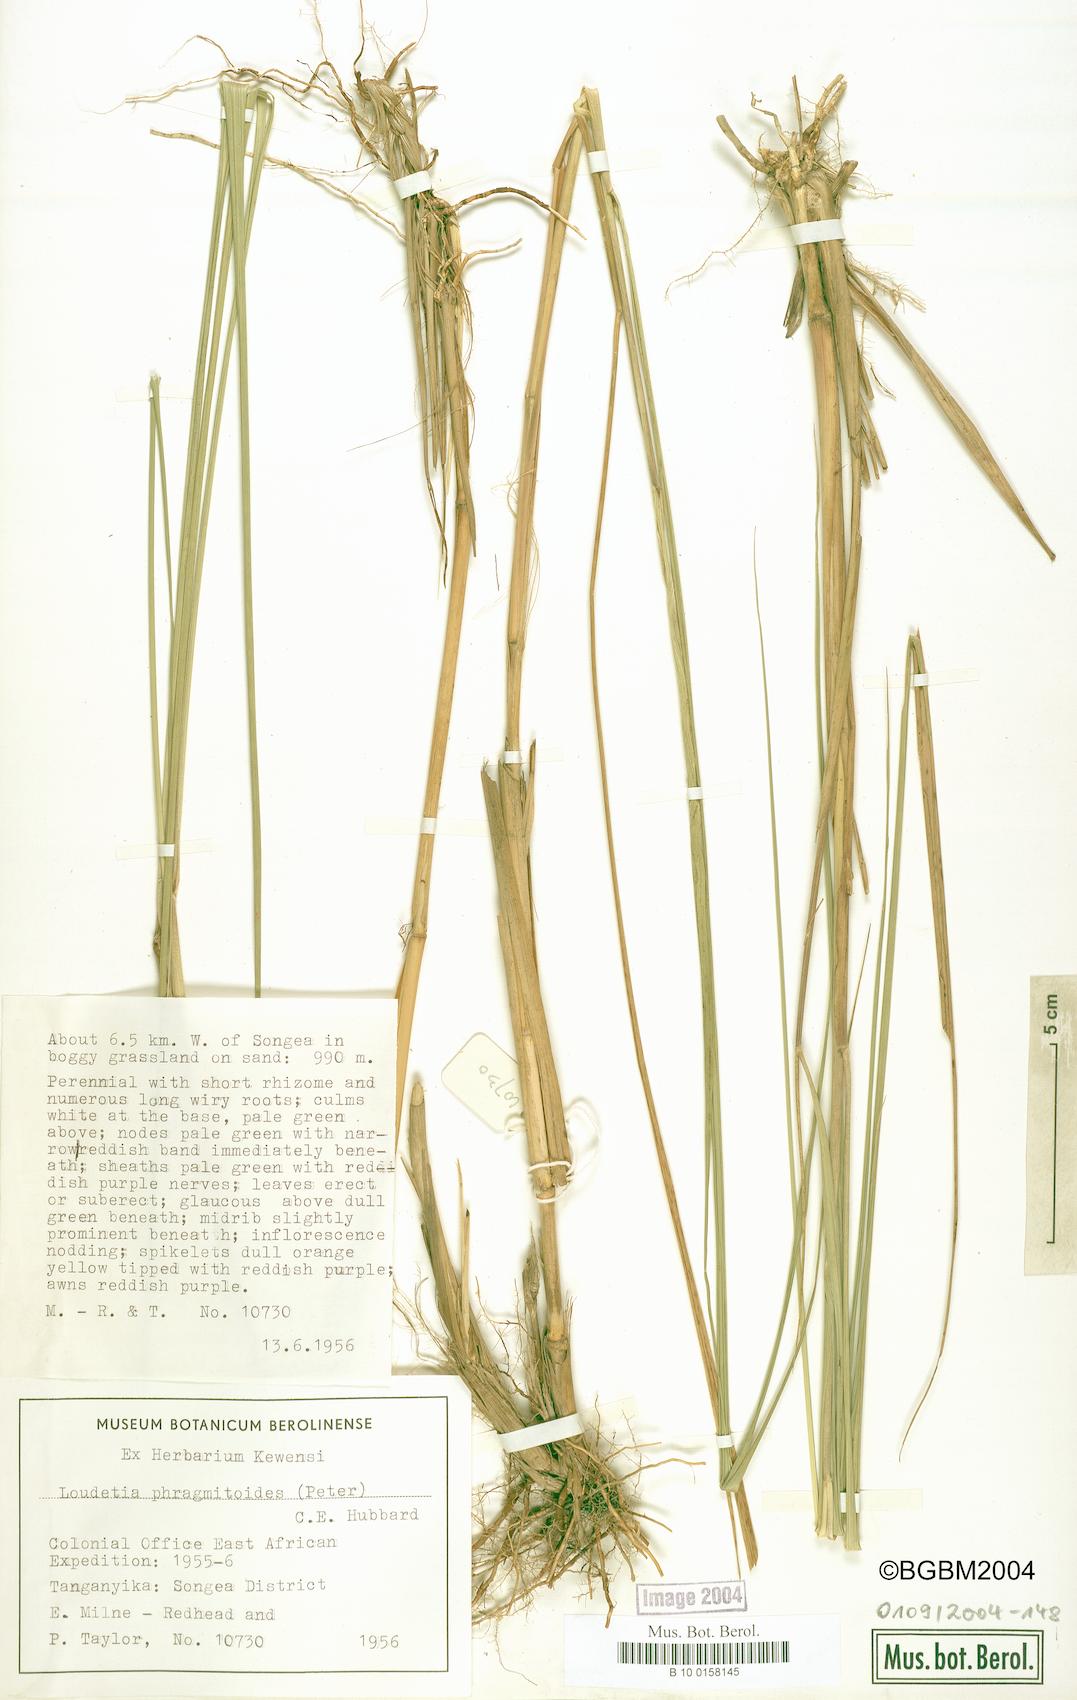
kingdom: Plantae
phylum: Tracheophyta
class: Liliopsida
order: Poales
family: Poaceae
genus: Loudetia
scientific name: Loudetia phragmitoides
